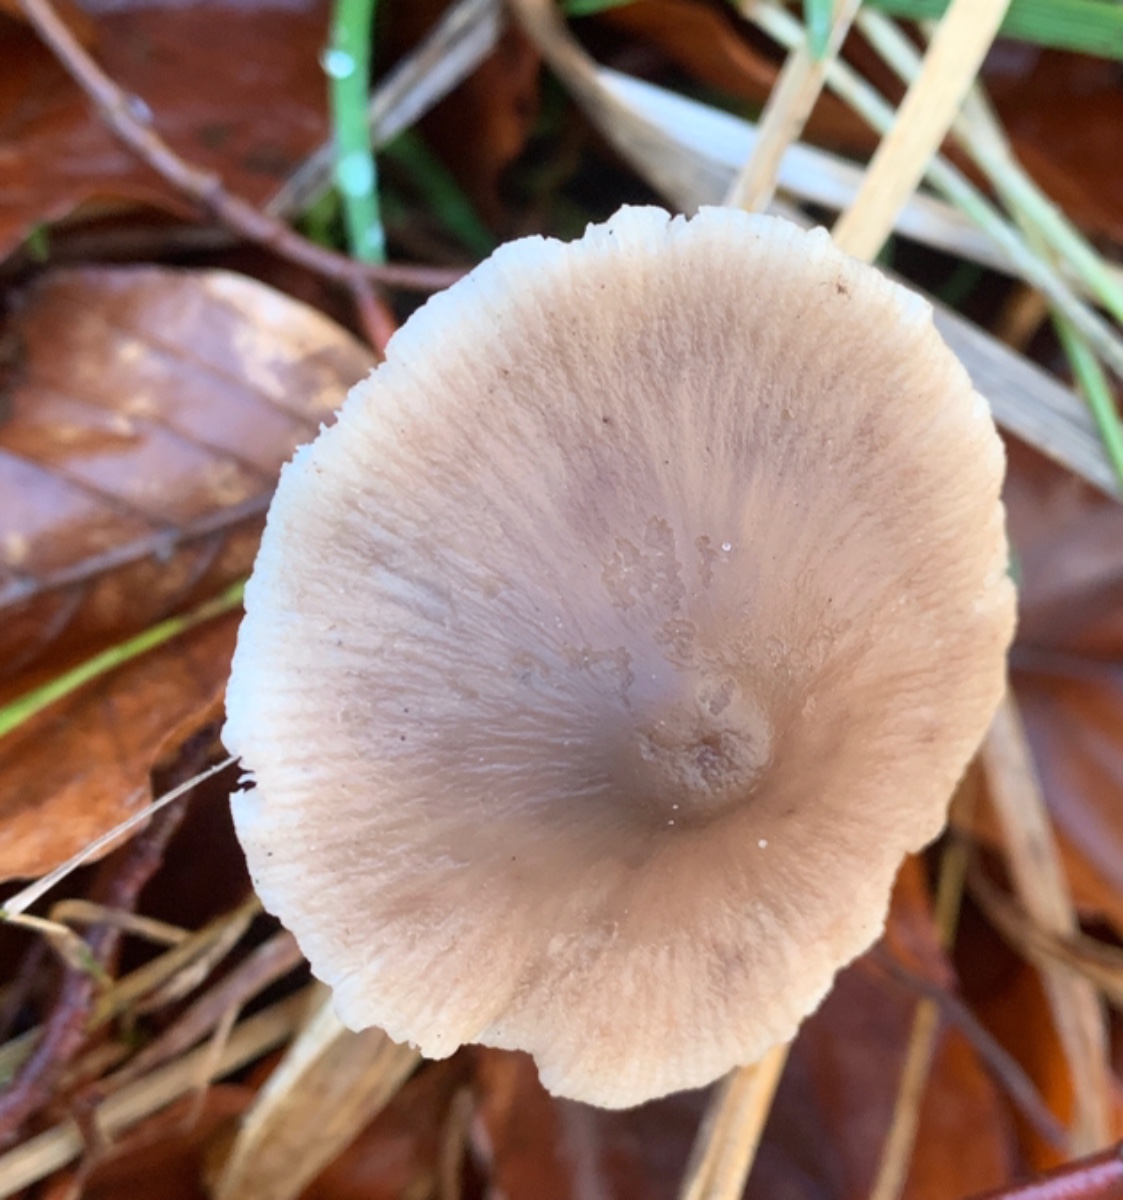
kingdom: Fungi
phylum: Basidiomycota
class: Agaricomycetes
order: Agaricales
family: Omphalotaceae
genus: Mycetinis
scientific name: Mycetinis alliaceus
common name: stor løghat
